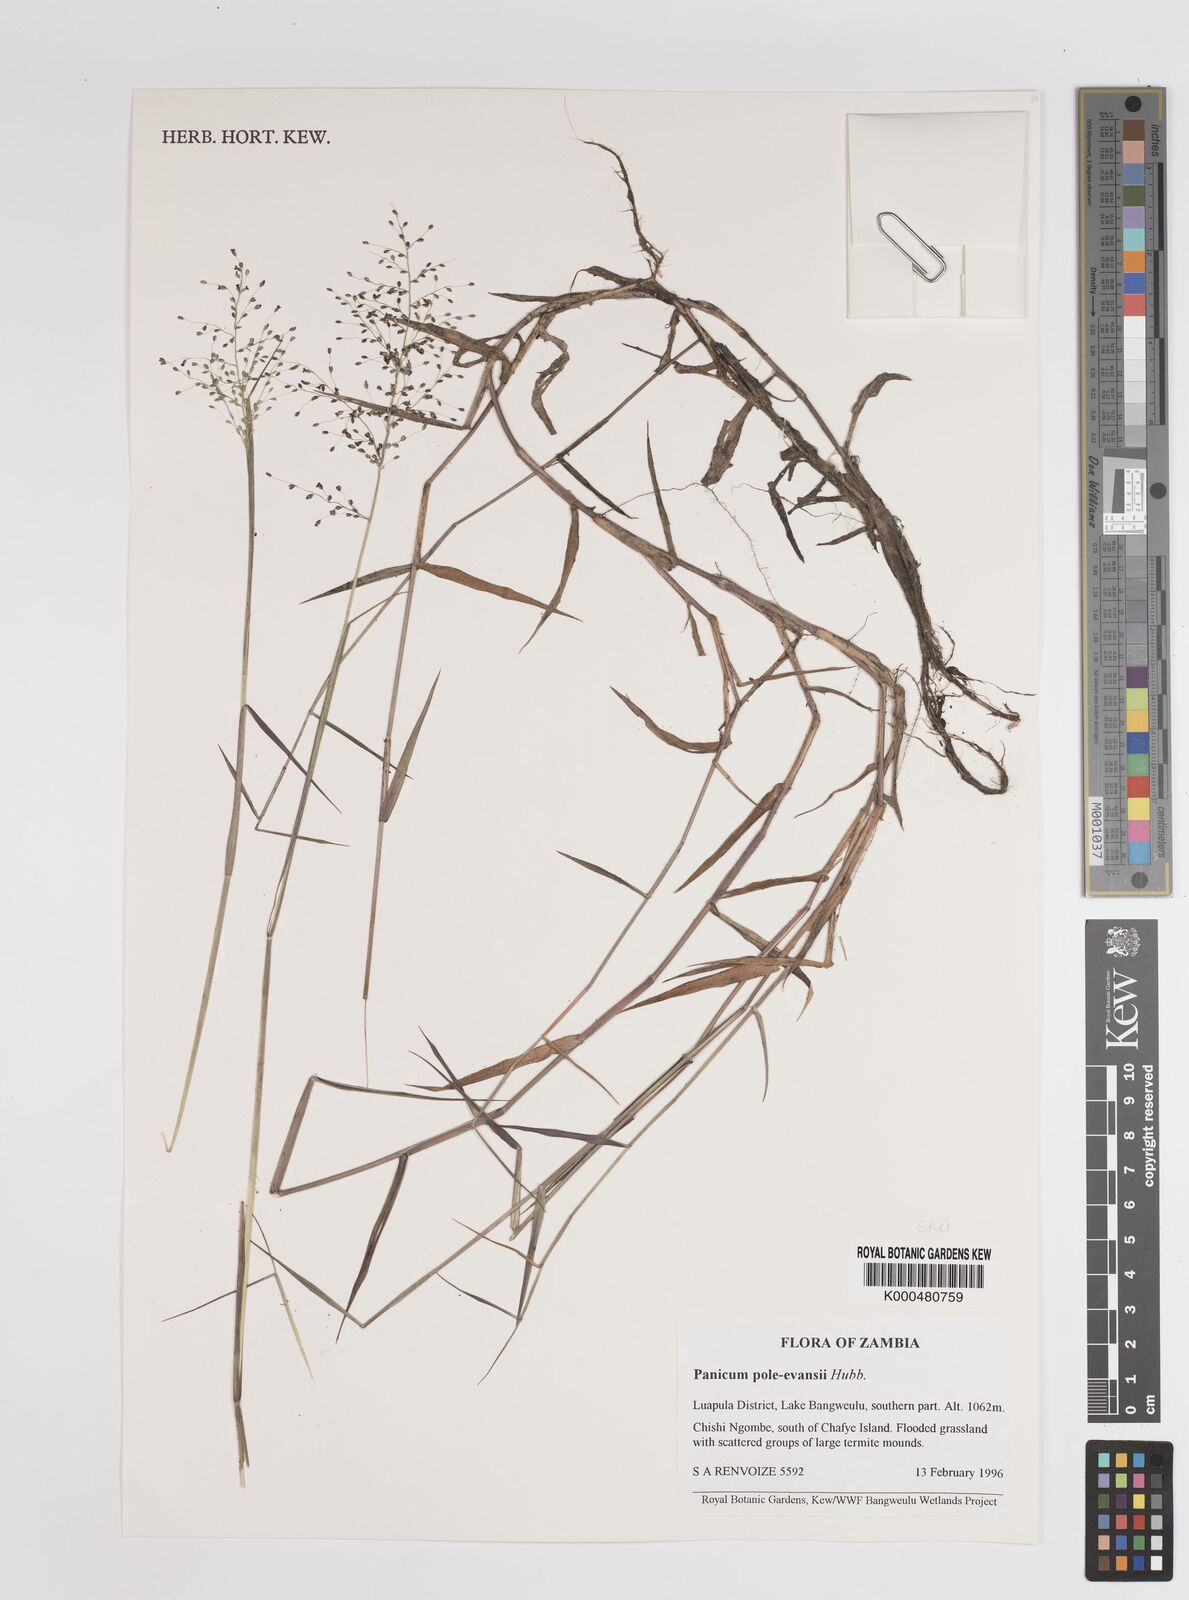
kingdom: Plantae
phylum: Tracheophyta
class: Liliopsida
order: Poales
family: Poaceae
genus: Adenochloa
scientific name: Adenochloa pole-evansii
